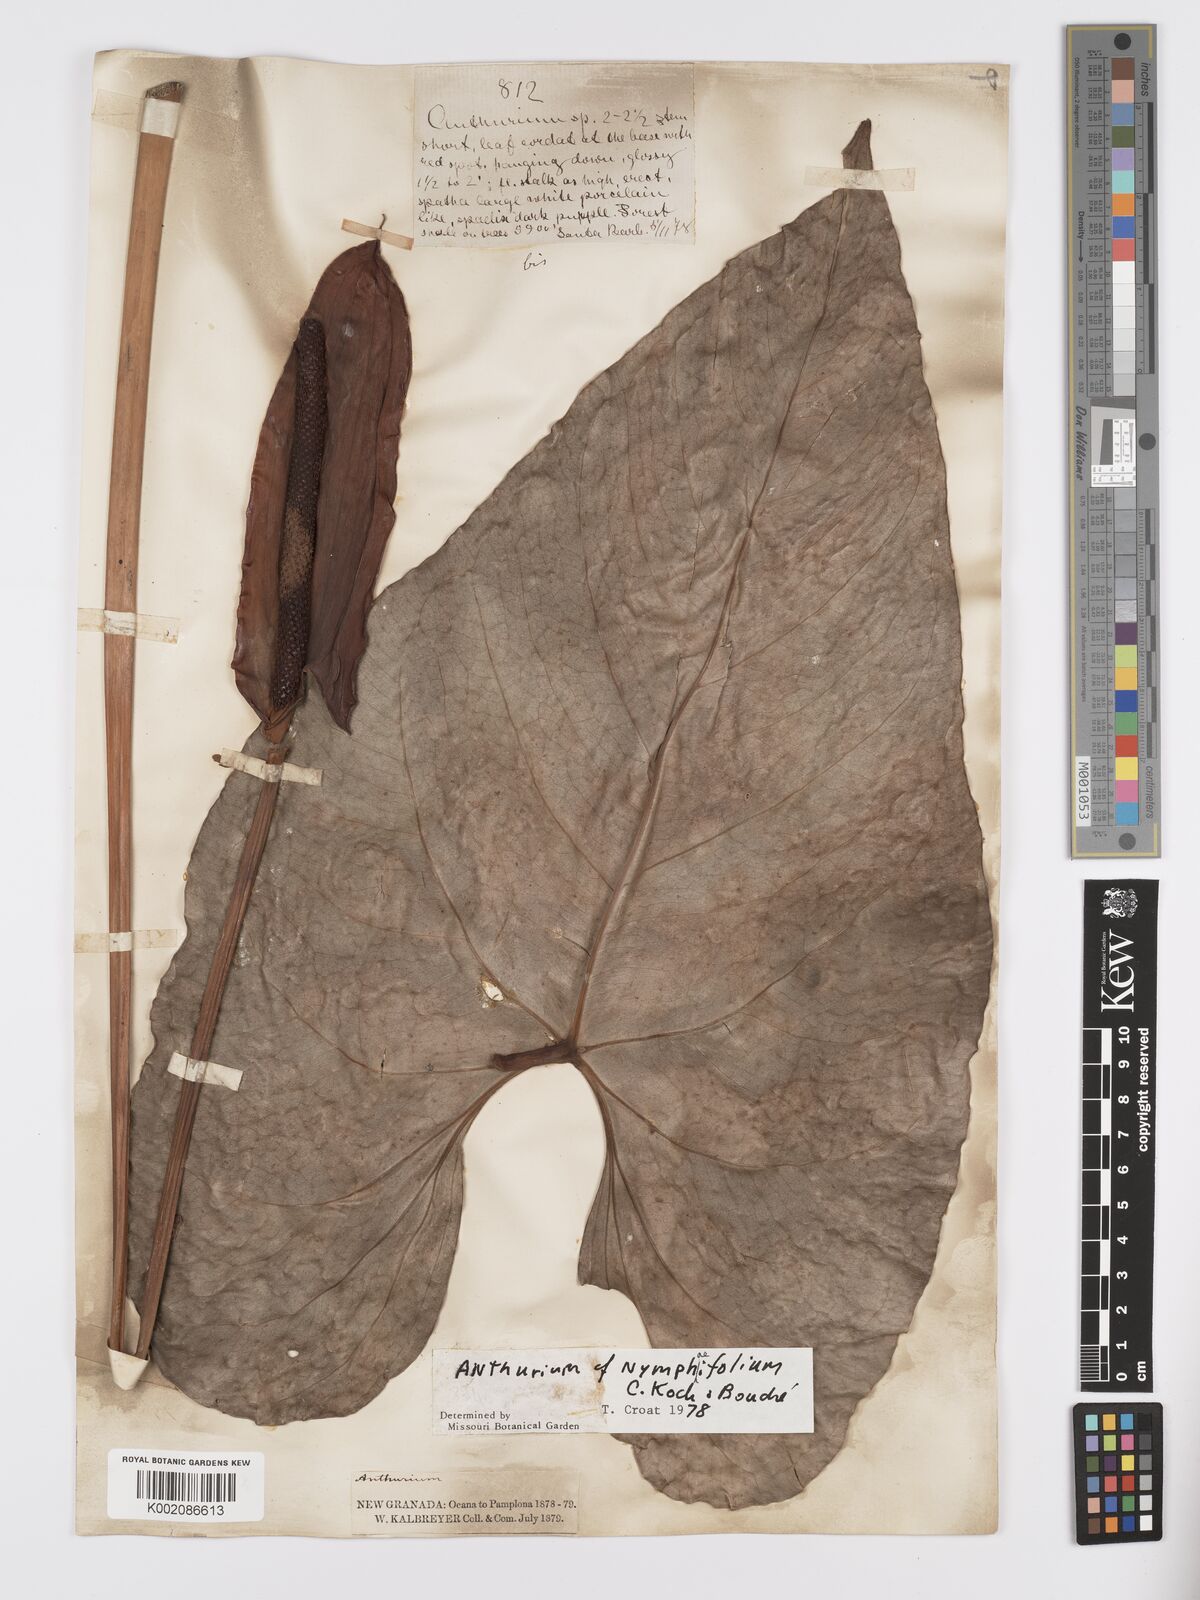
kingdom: Plantae
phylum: Tracheophyta
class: Liliopsida
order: Alismatales
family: Araceae
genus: Anthurium
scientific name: Anthurium nymphaeifolium
